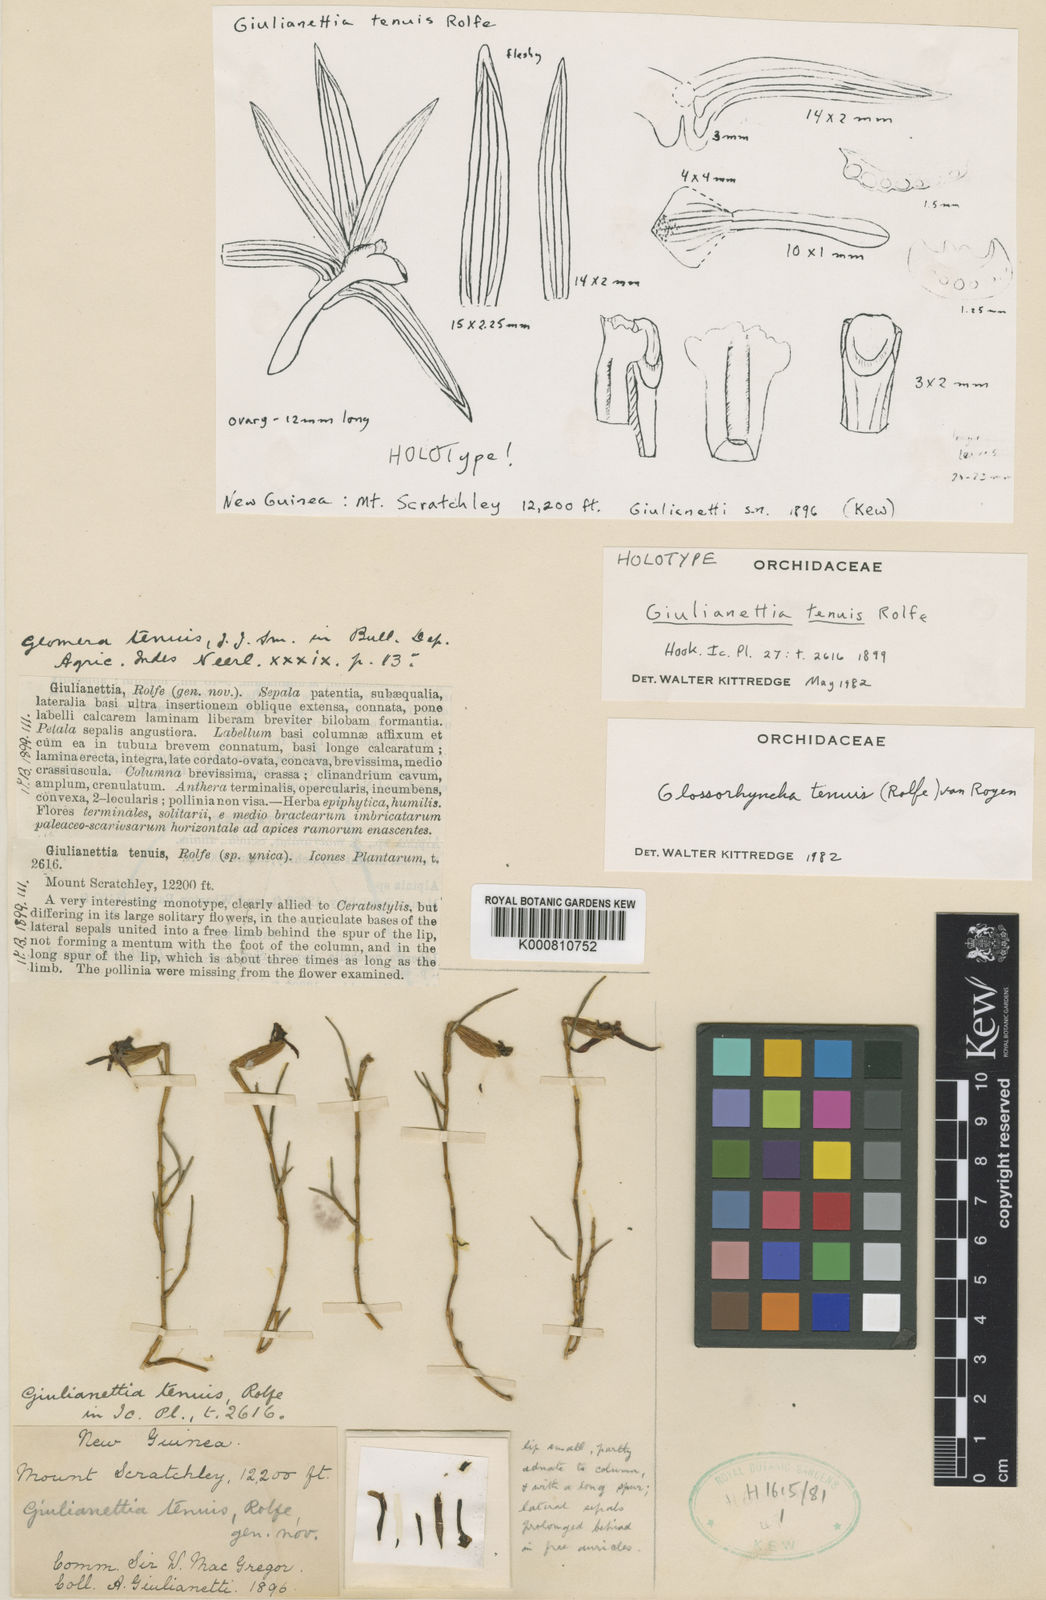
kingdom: Plantae
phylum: Tracheophyta
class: Liliopsida
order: Asparagales
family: Orchidaceae
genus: Glomera
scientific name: Glomera tenuis
